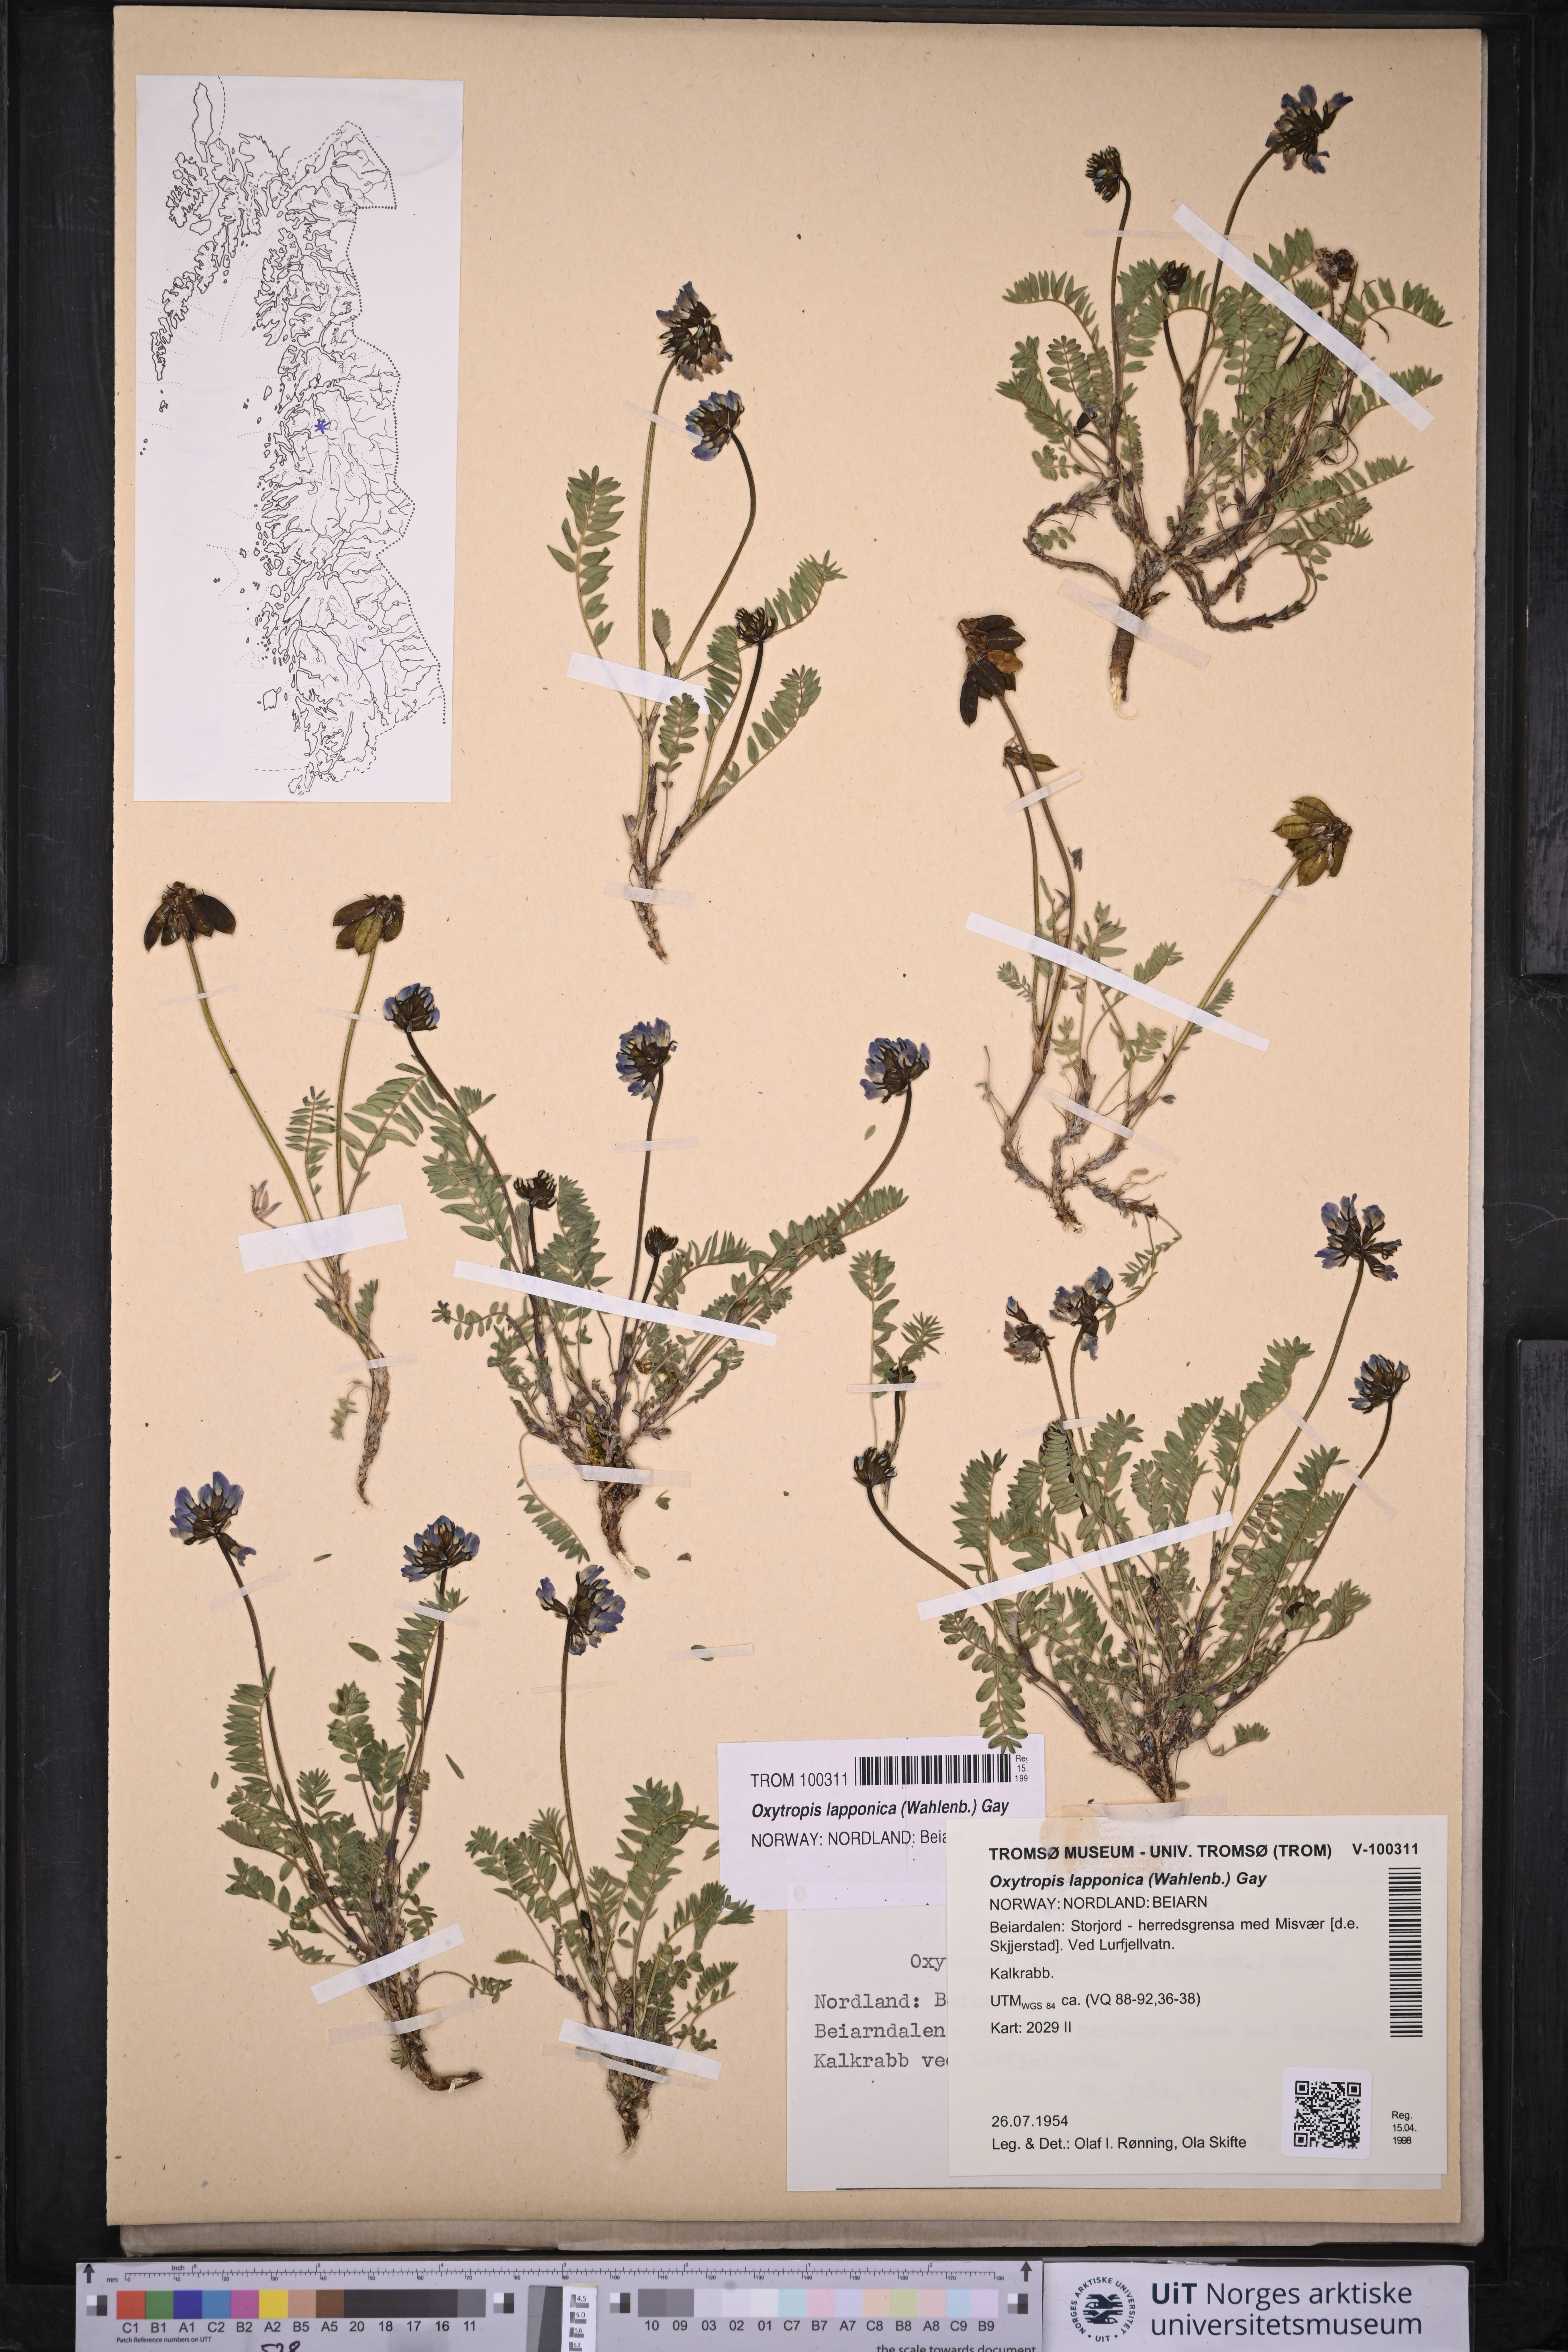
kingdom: Plantae
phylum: Tracheophyta
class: Magnoliopsida
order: Fabales
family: Fabaceae
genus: Oxytropis
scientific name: Oxytropis lapponica
